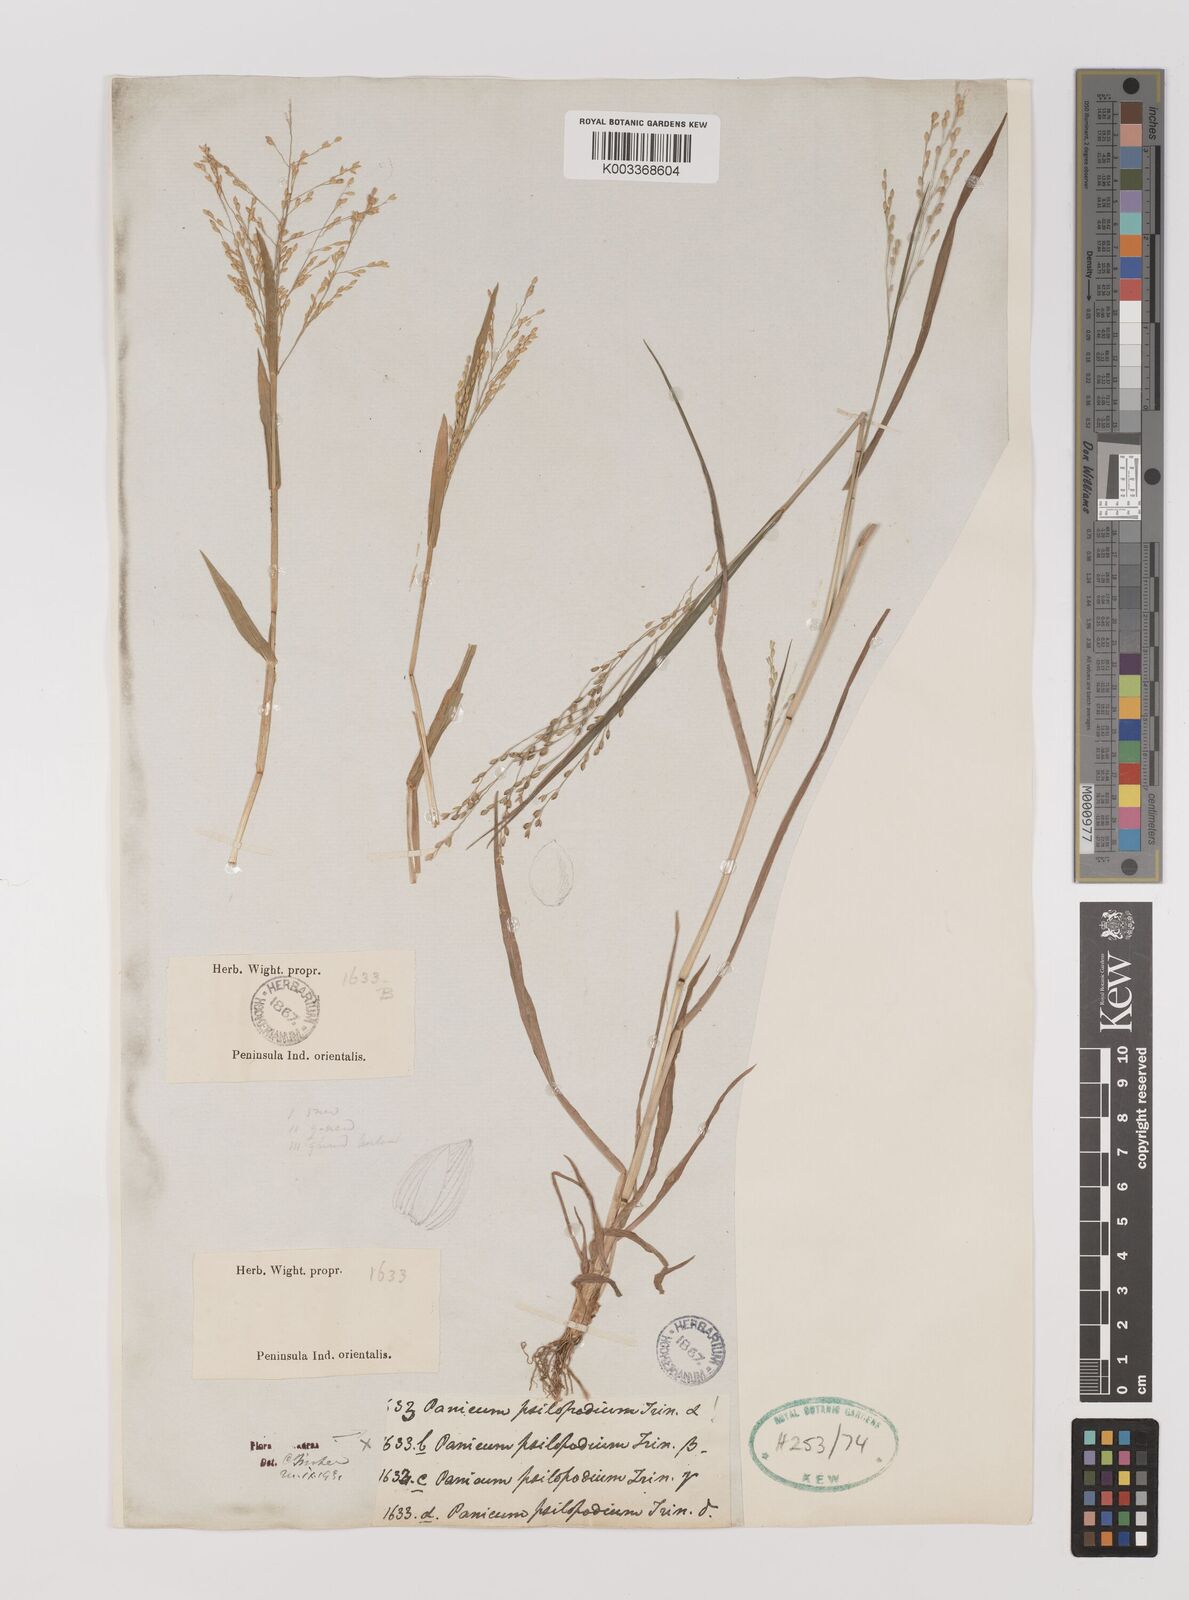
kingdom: Plantae
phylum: Tracheophyta
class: Liliopsida
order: Poales
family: Poaceae
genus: Panicum
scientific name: Panicum sumatrense
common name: Little millet
